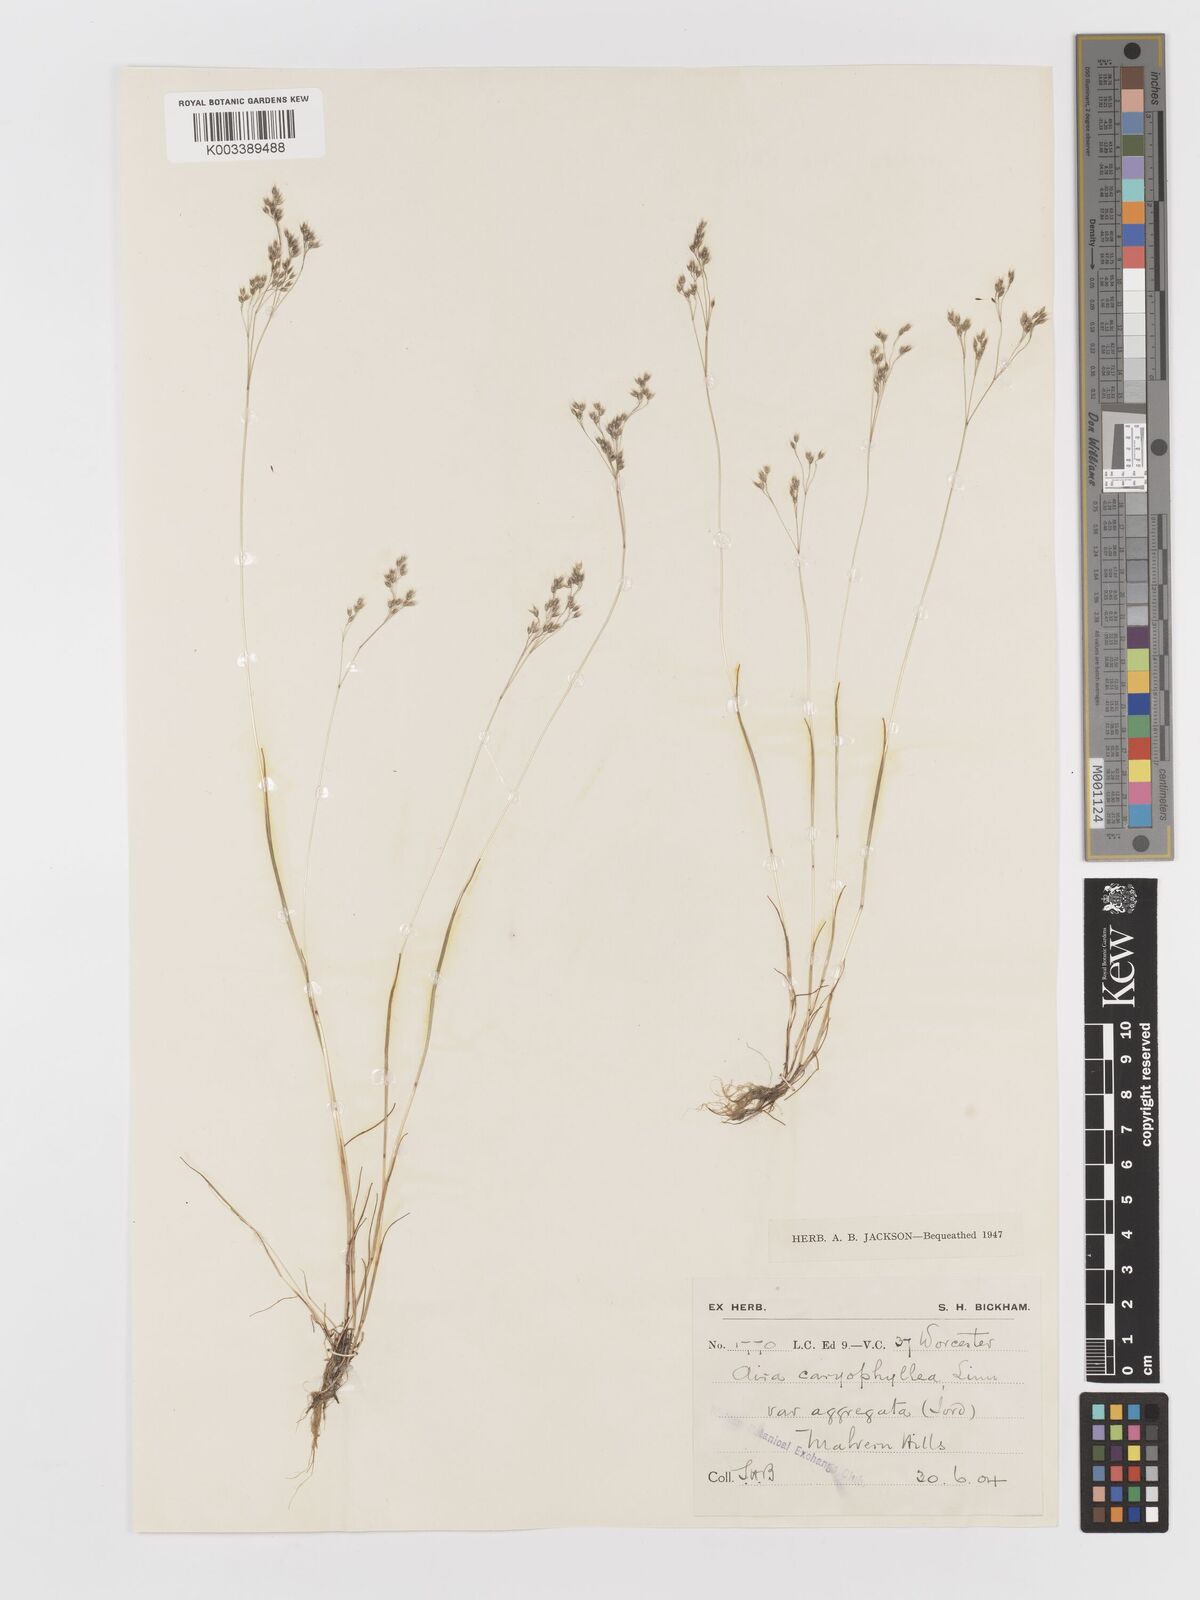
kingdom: Plantae
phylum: Tracheophyta
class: Liliopsida
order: Poales
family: Poaceae
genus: Aira
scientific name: Aira caryophyllea
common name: Silver hairgrass
